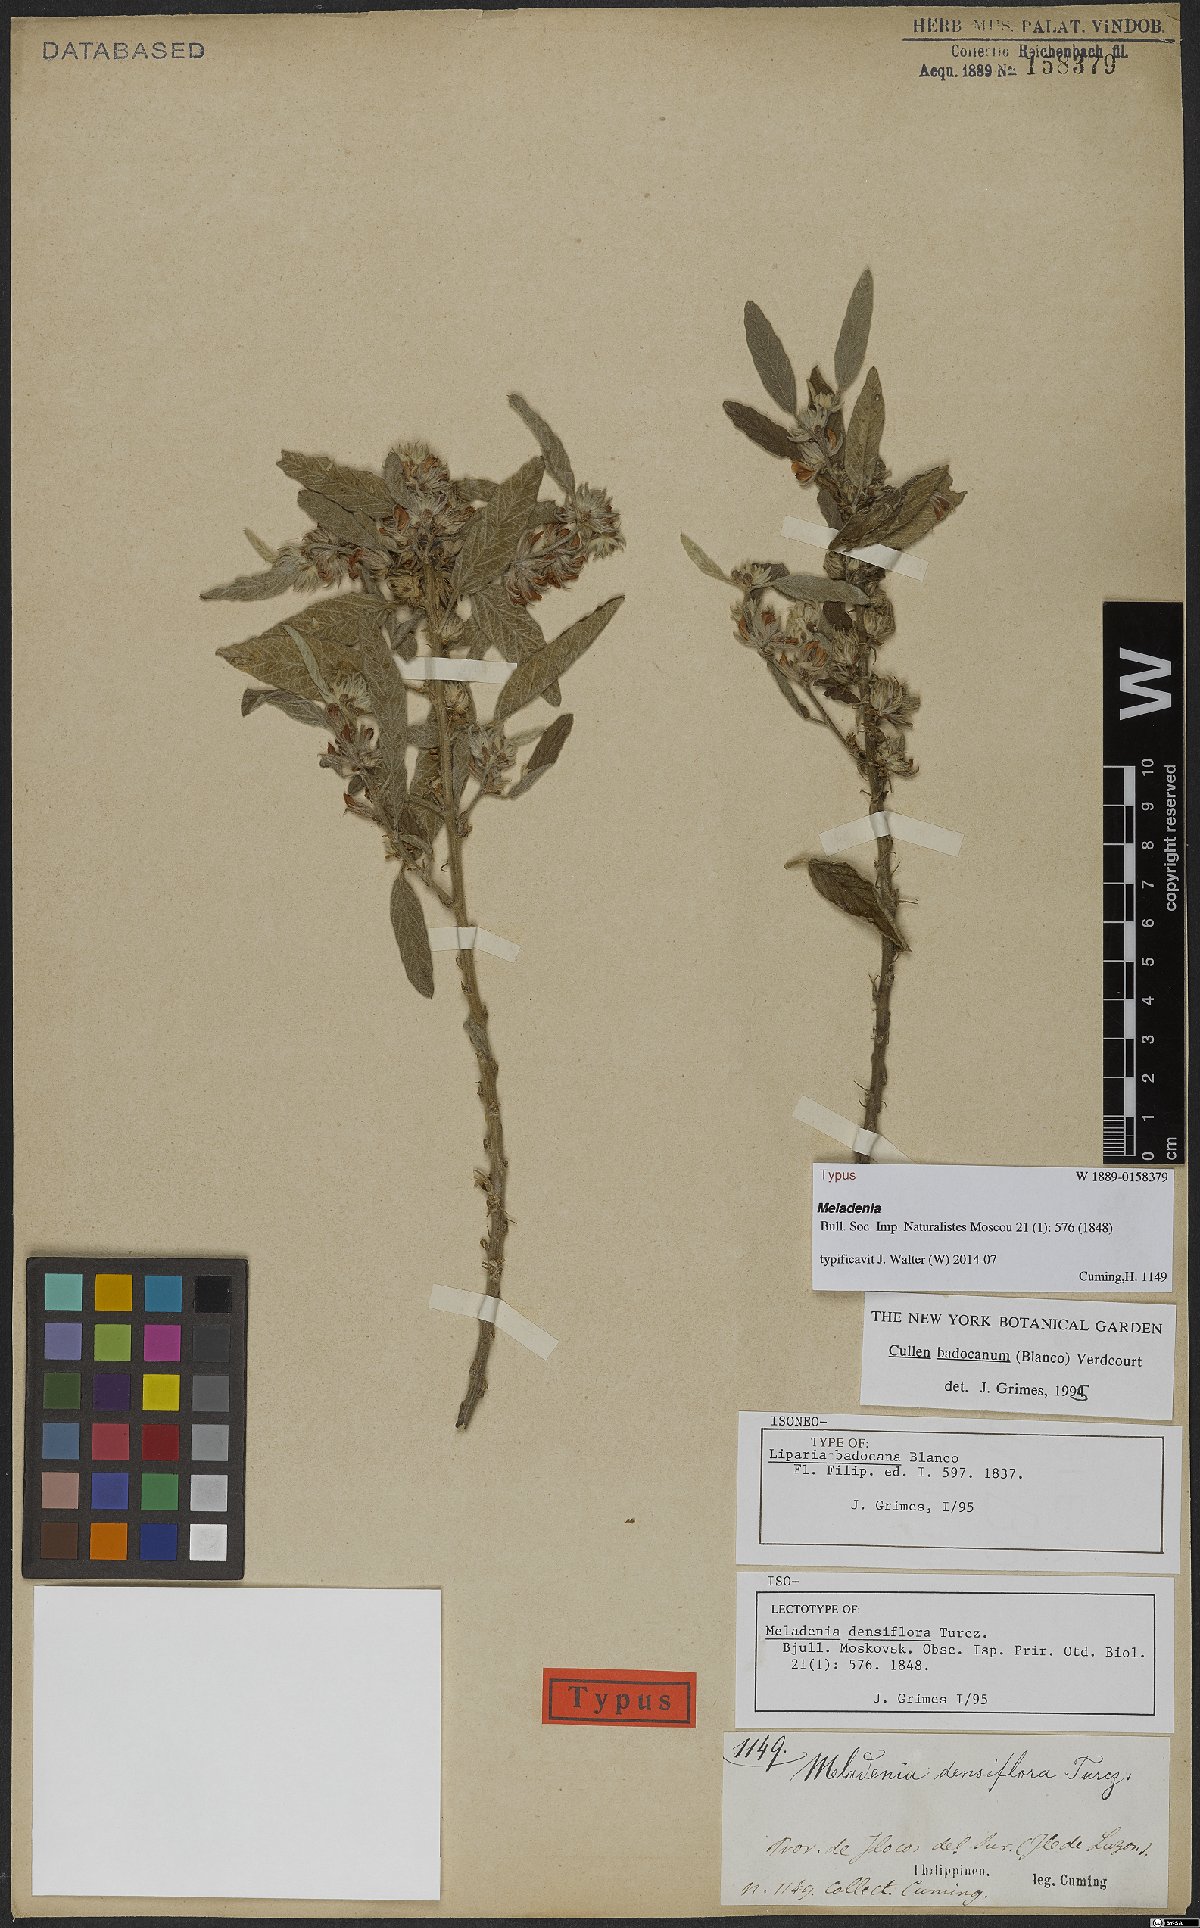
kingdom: Plantae
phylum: Tracheophyta
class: Magnoliopsida
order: Fabales
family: Fabaceae
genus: Cullen
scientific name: Cullen badocanum
